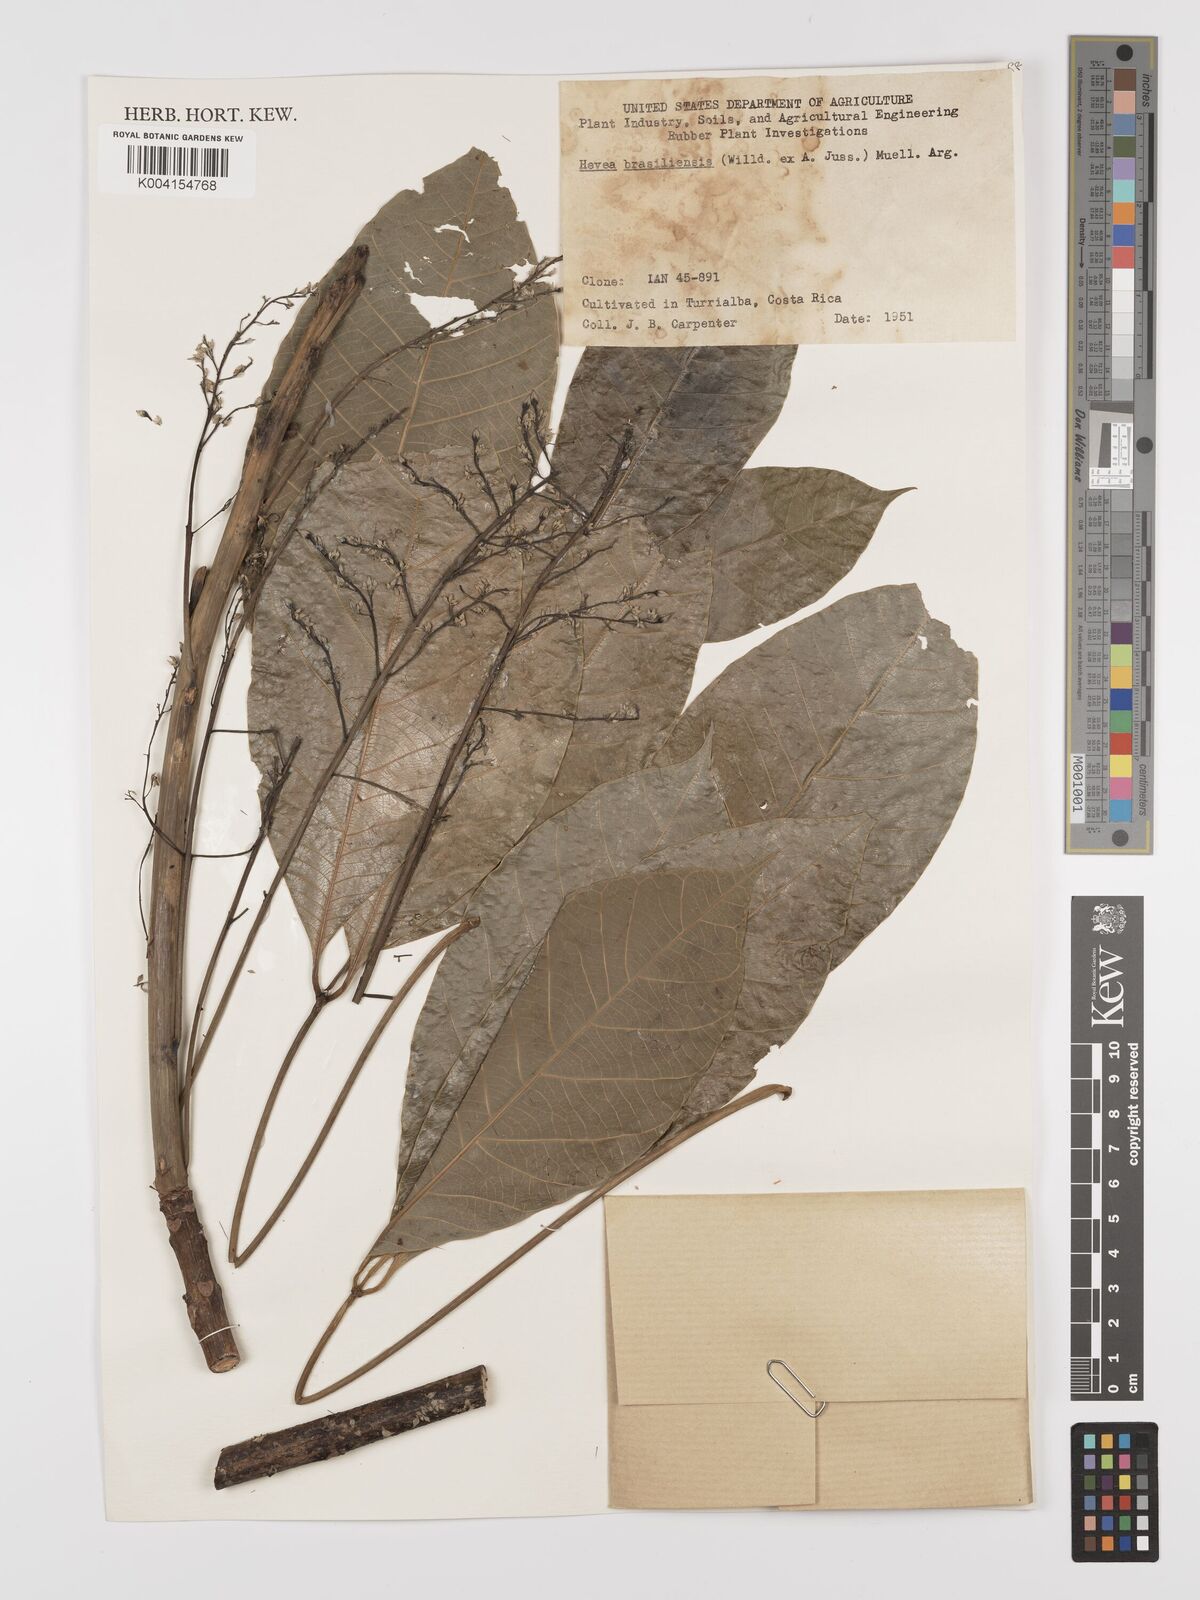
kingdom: Plantae
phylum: Tracheophyta
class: Magnoliopsida
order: Malpighiales
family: Euphorbiaceae
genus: Hevea
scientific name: Hevea brasiliensis
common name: Natural rubber
